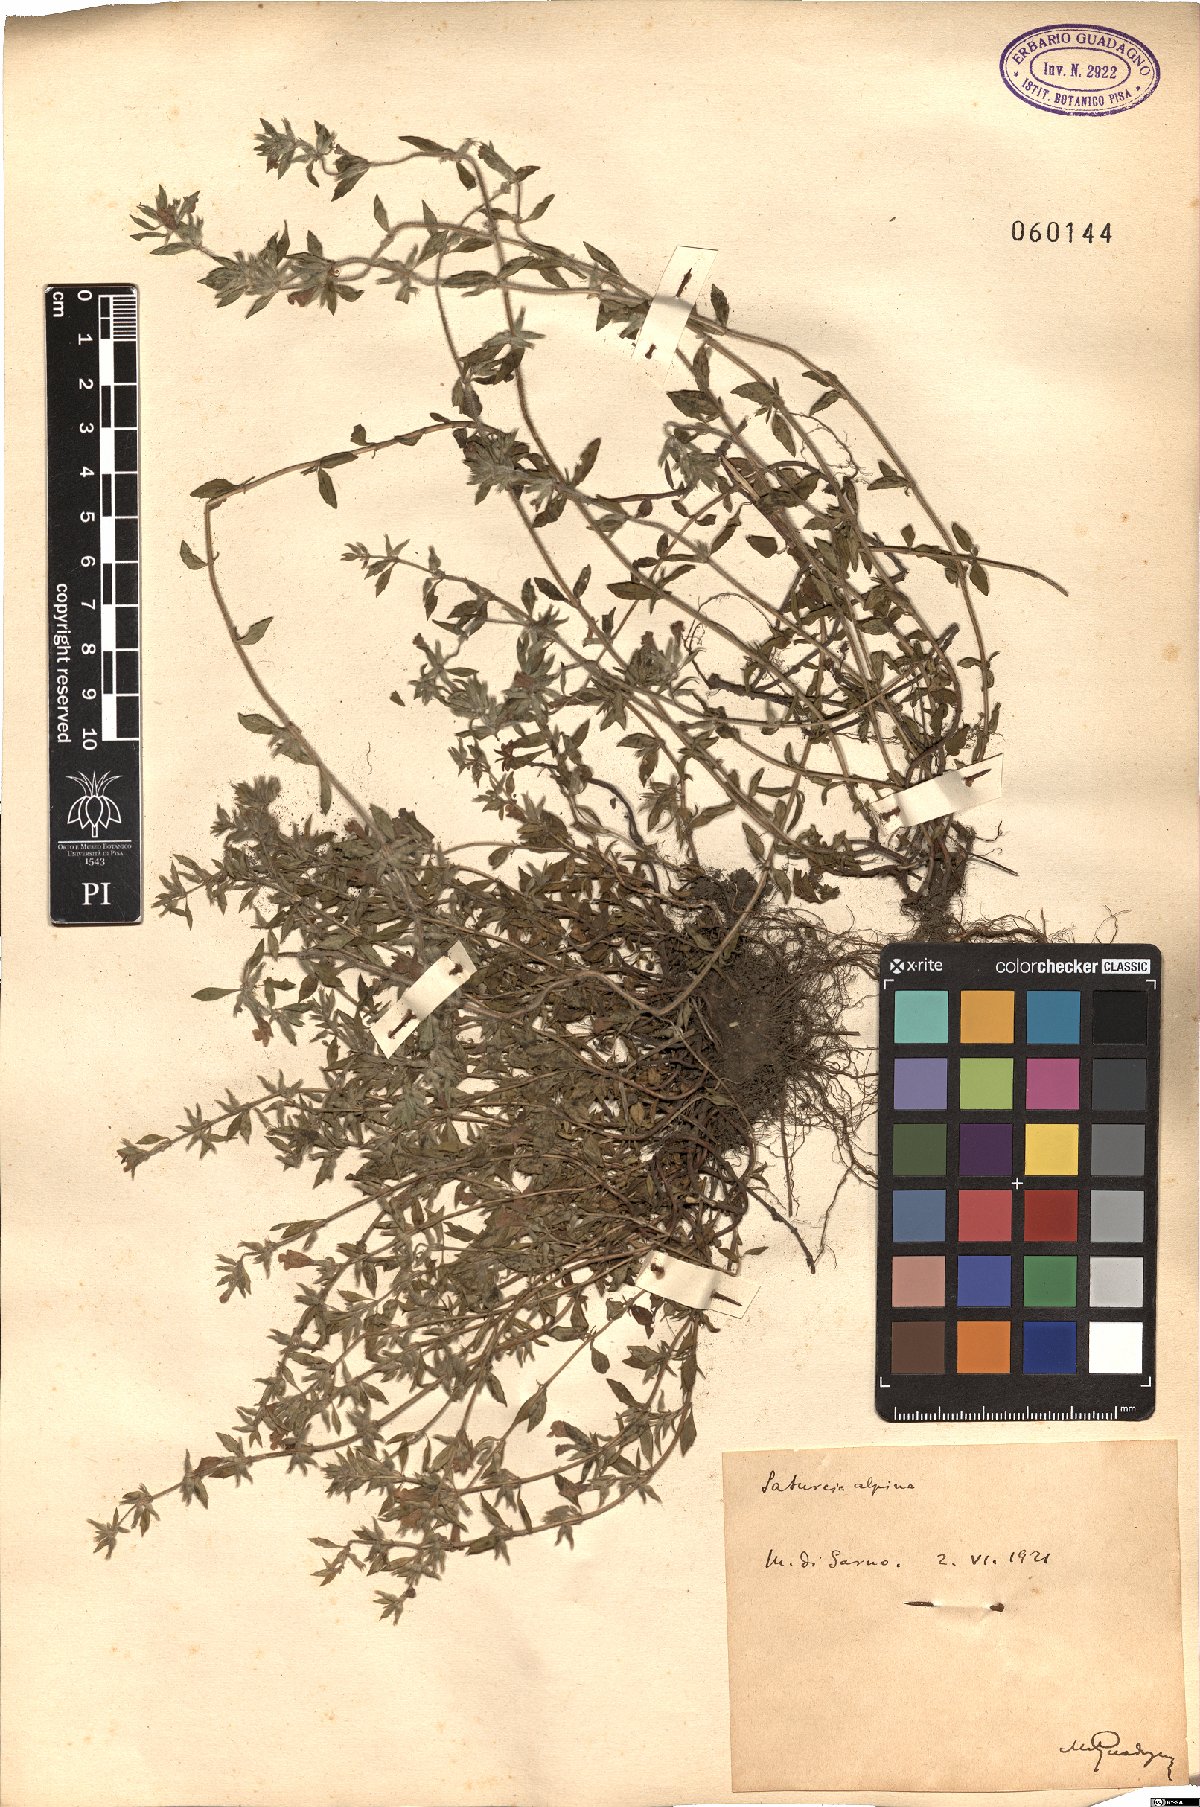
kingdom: Plantae
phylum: Tracheophyta
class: Magnoliopsida
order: Lamiales
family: Lamiaceae
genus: Clinopodium
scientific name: Clinopodium alpinum
